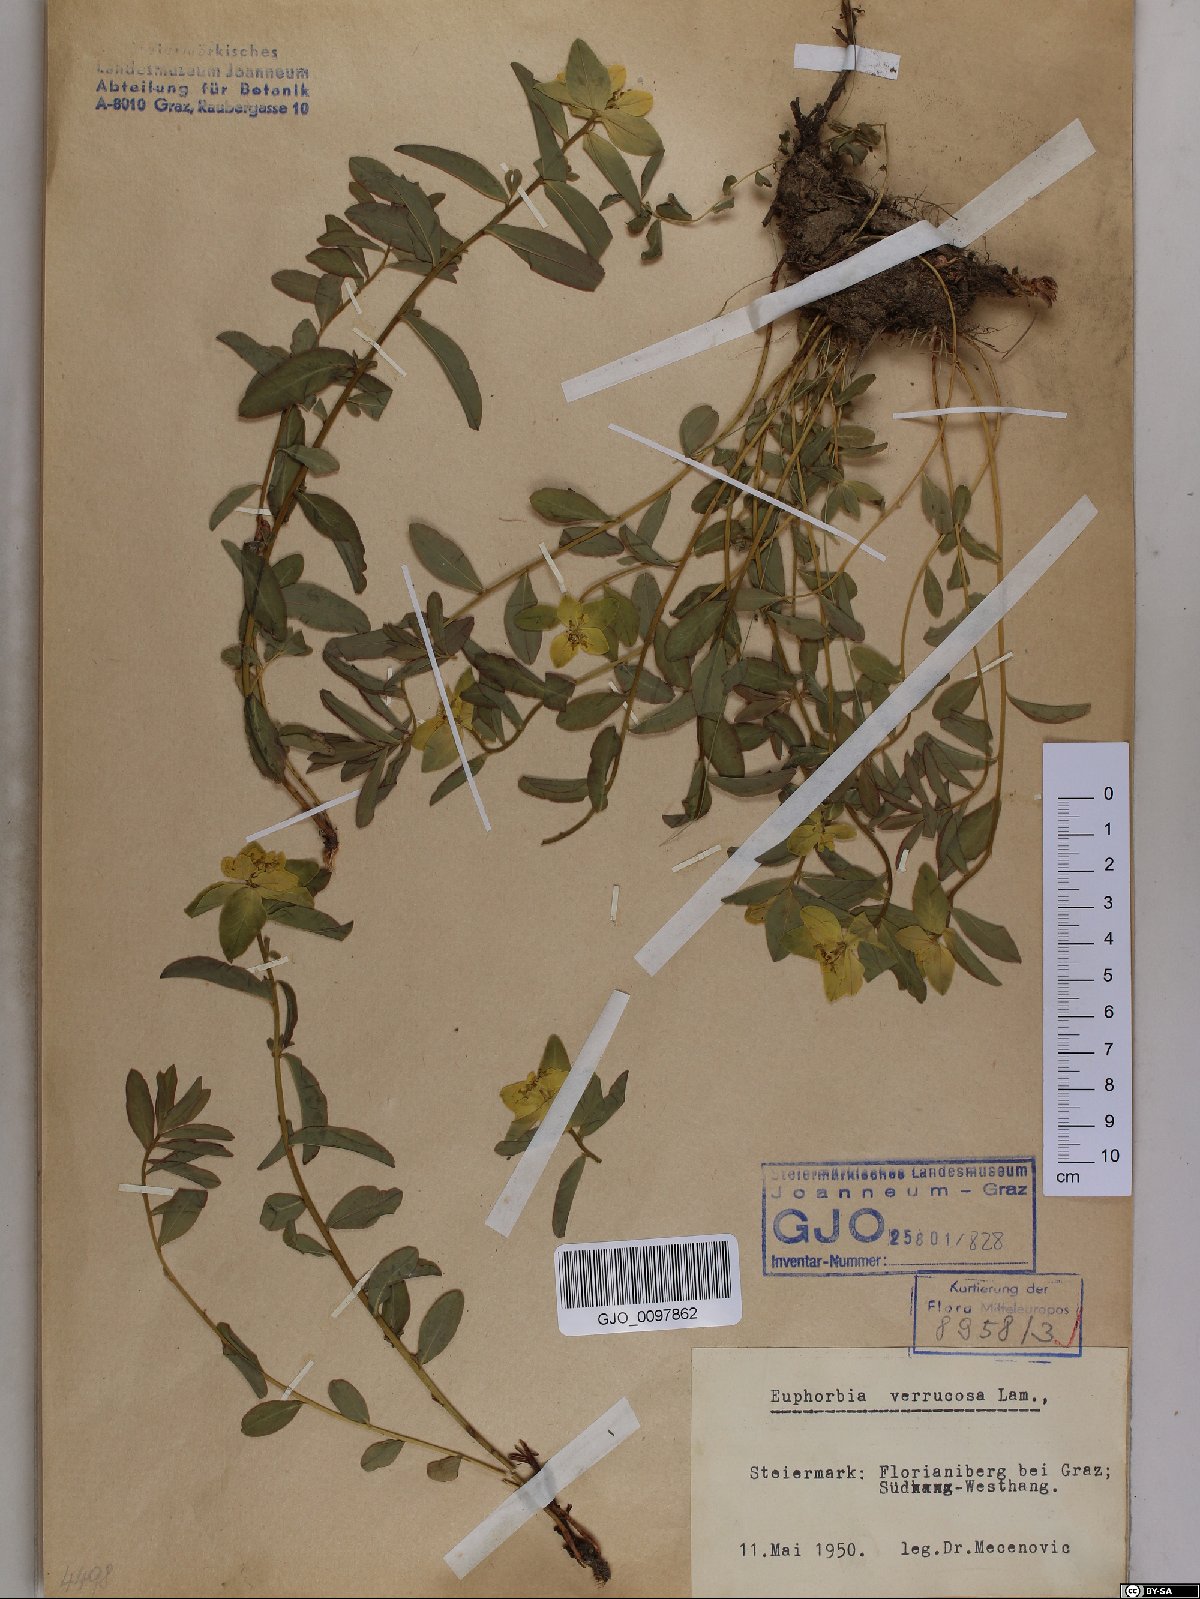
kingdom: Plantae
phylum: Tracheophyta
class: Magnoliopsida
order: Malpighiales
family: Euphorbiaceae
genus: Euphorbia
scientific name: Euphorbia verrucosa
